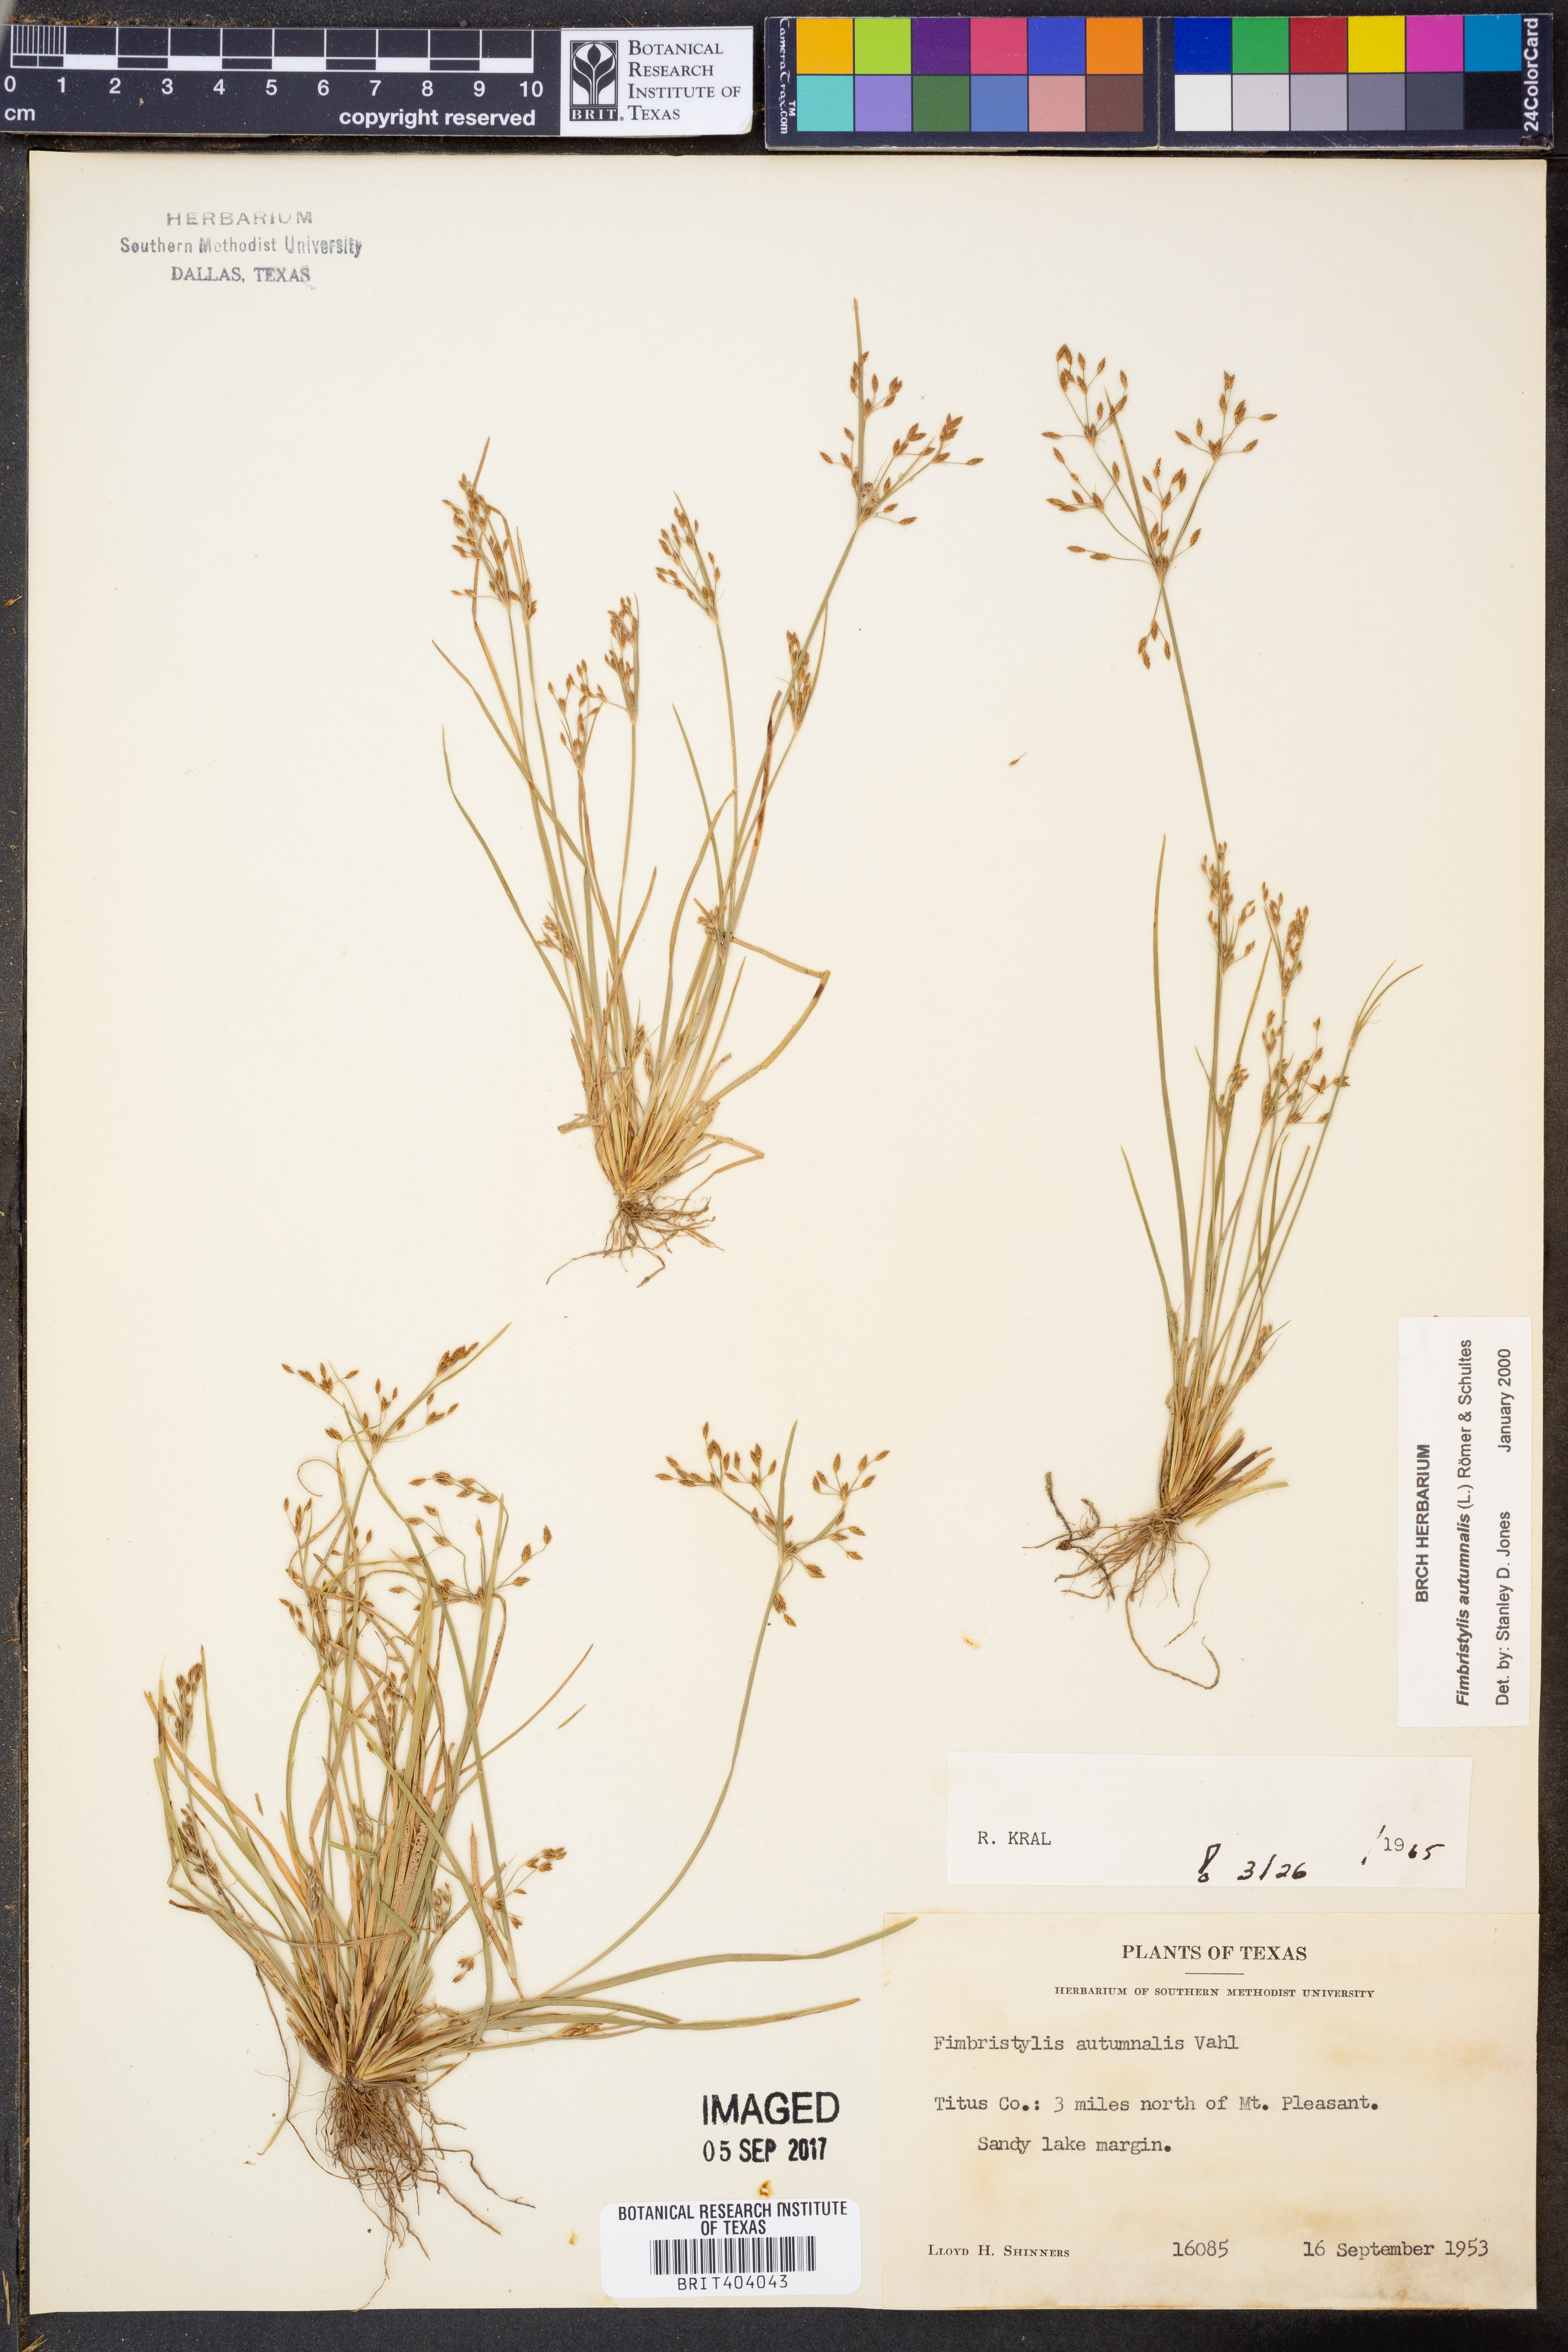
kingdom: Plantae
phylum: Tracheophyta
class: Liliopsida
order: Poales
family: Cyperaceae
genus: Fimbristylis
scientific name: Fimbristylis autumnalis
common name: Slender fimbristylis
